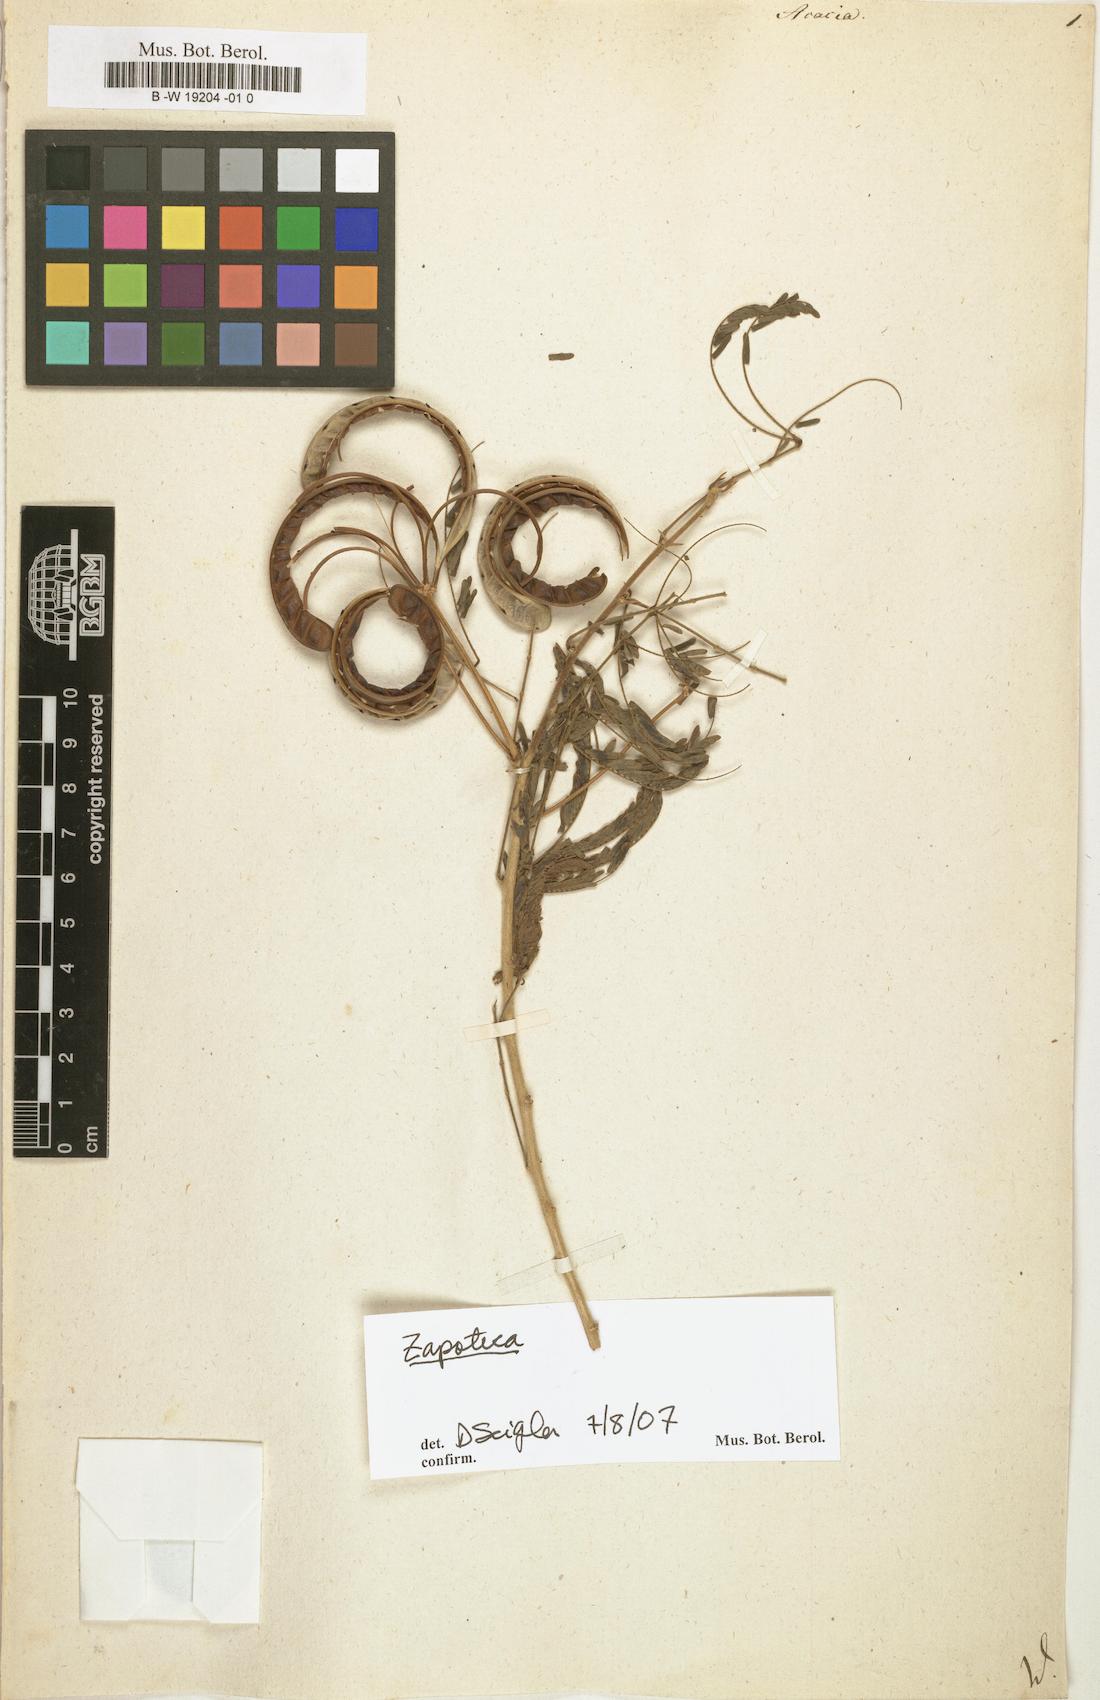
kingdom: Plantae
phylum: Tracheophyta
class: Magnoliopsida
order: Fabales
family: Fabaceae
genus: Acacia
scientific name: Acacia
